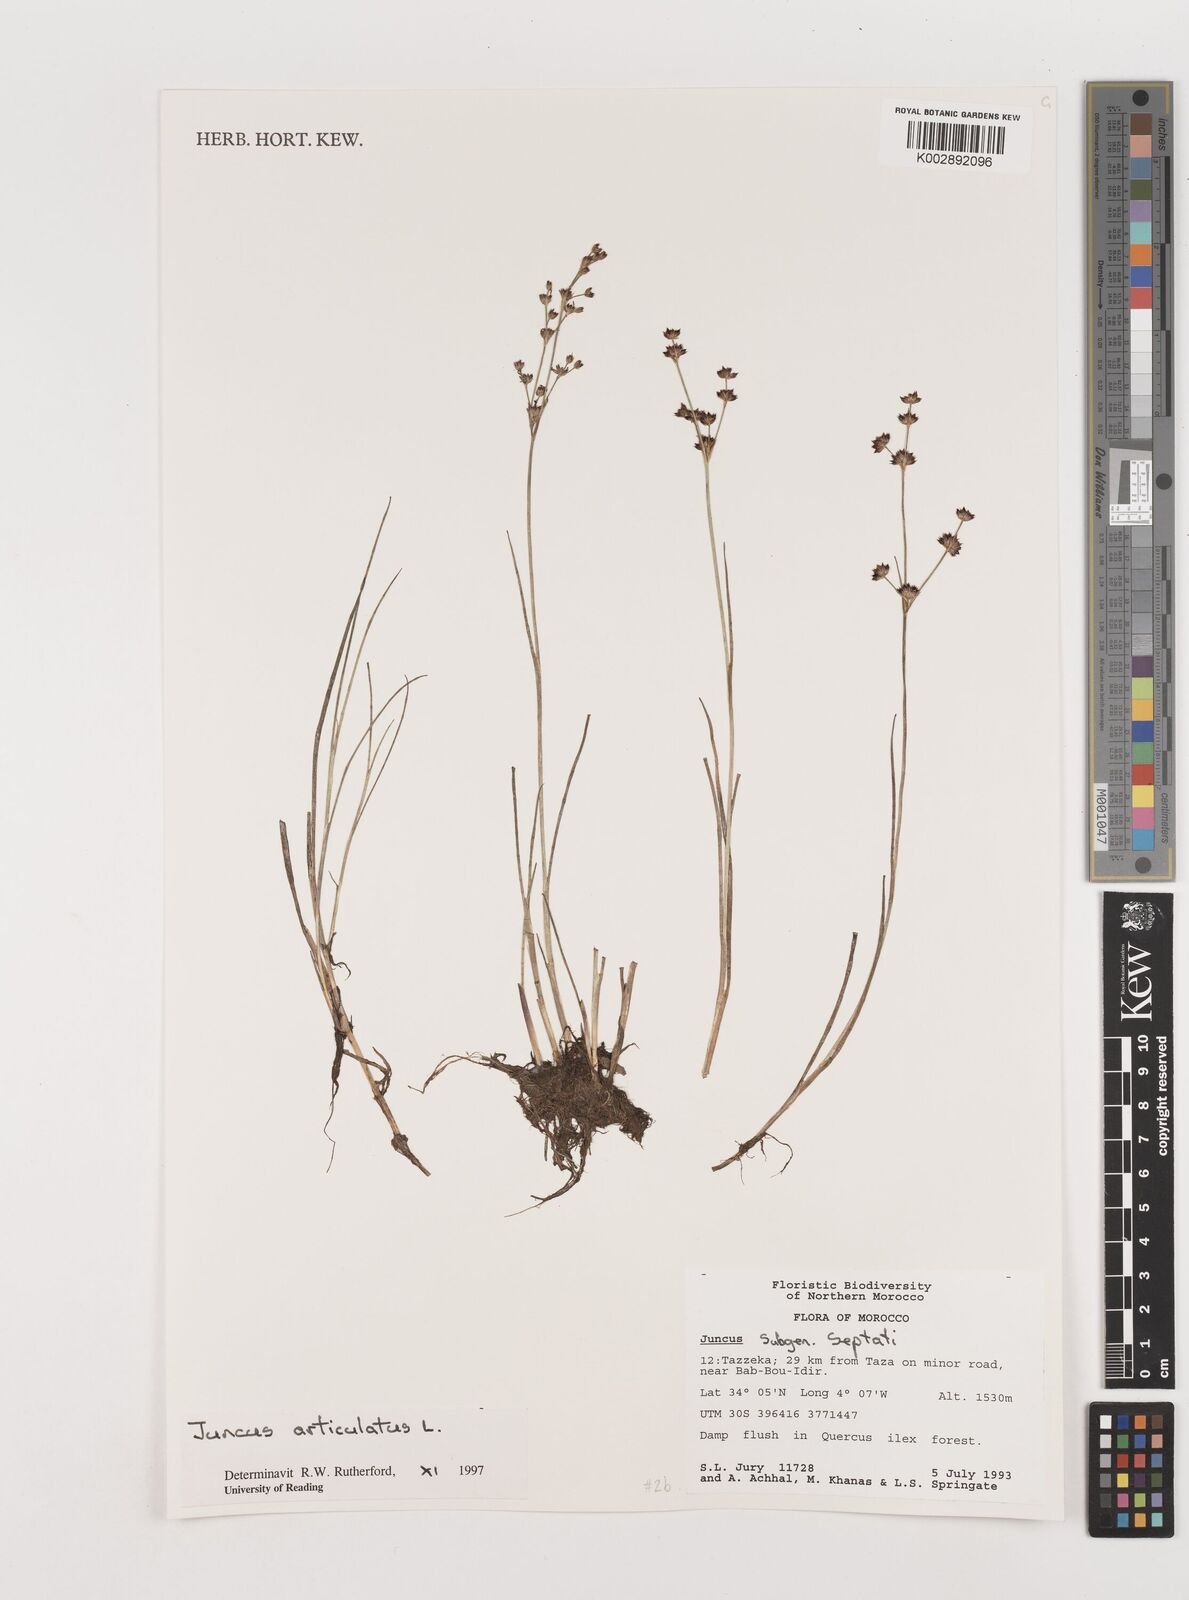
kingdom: Plantae
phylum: Tracheophyta
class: Liliopsida
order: Poales
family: Juncaceae
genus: Juncus
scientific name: Juncus articulatus
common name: Jointed rush
